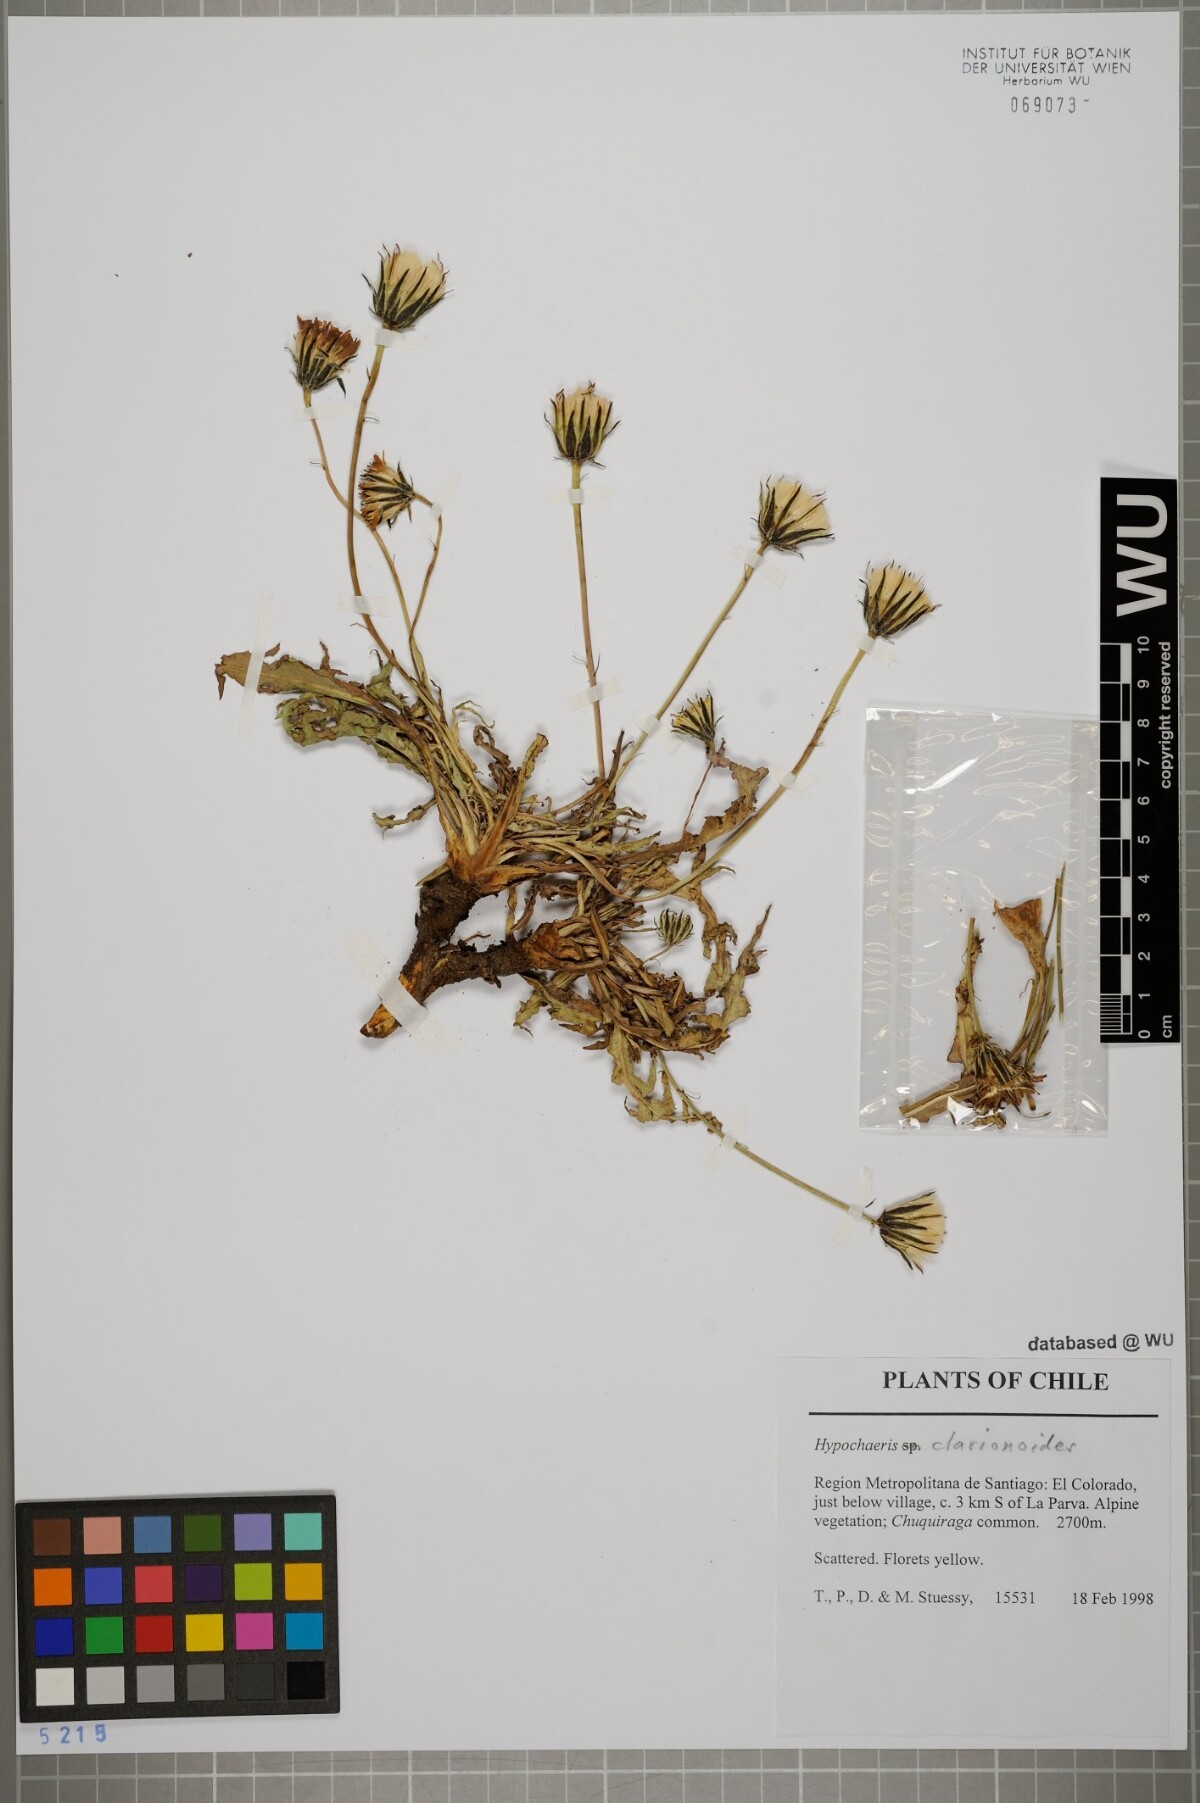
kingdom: Plantae
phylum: Tracheophyta
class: Magnoliopsida
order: Asterales
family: Asteraceae
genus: Hypochaeris
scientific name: Hypochaeris clarionoides
